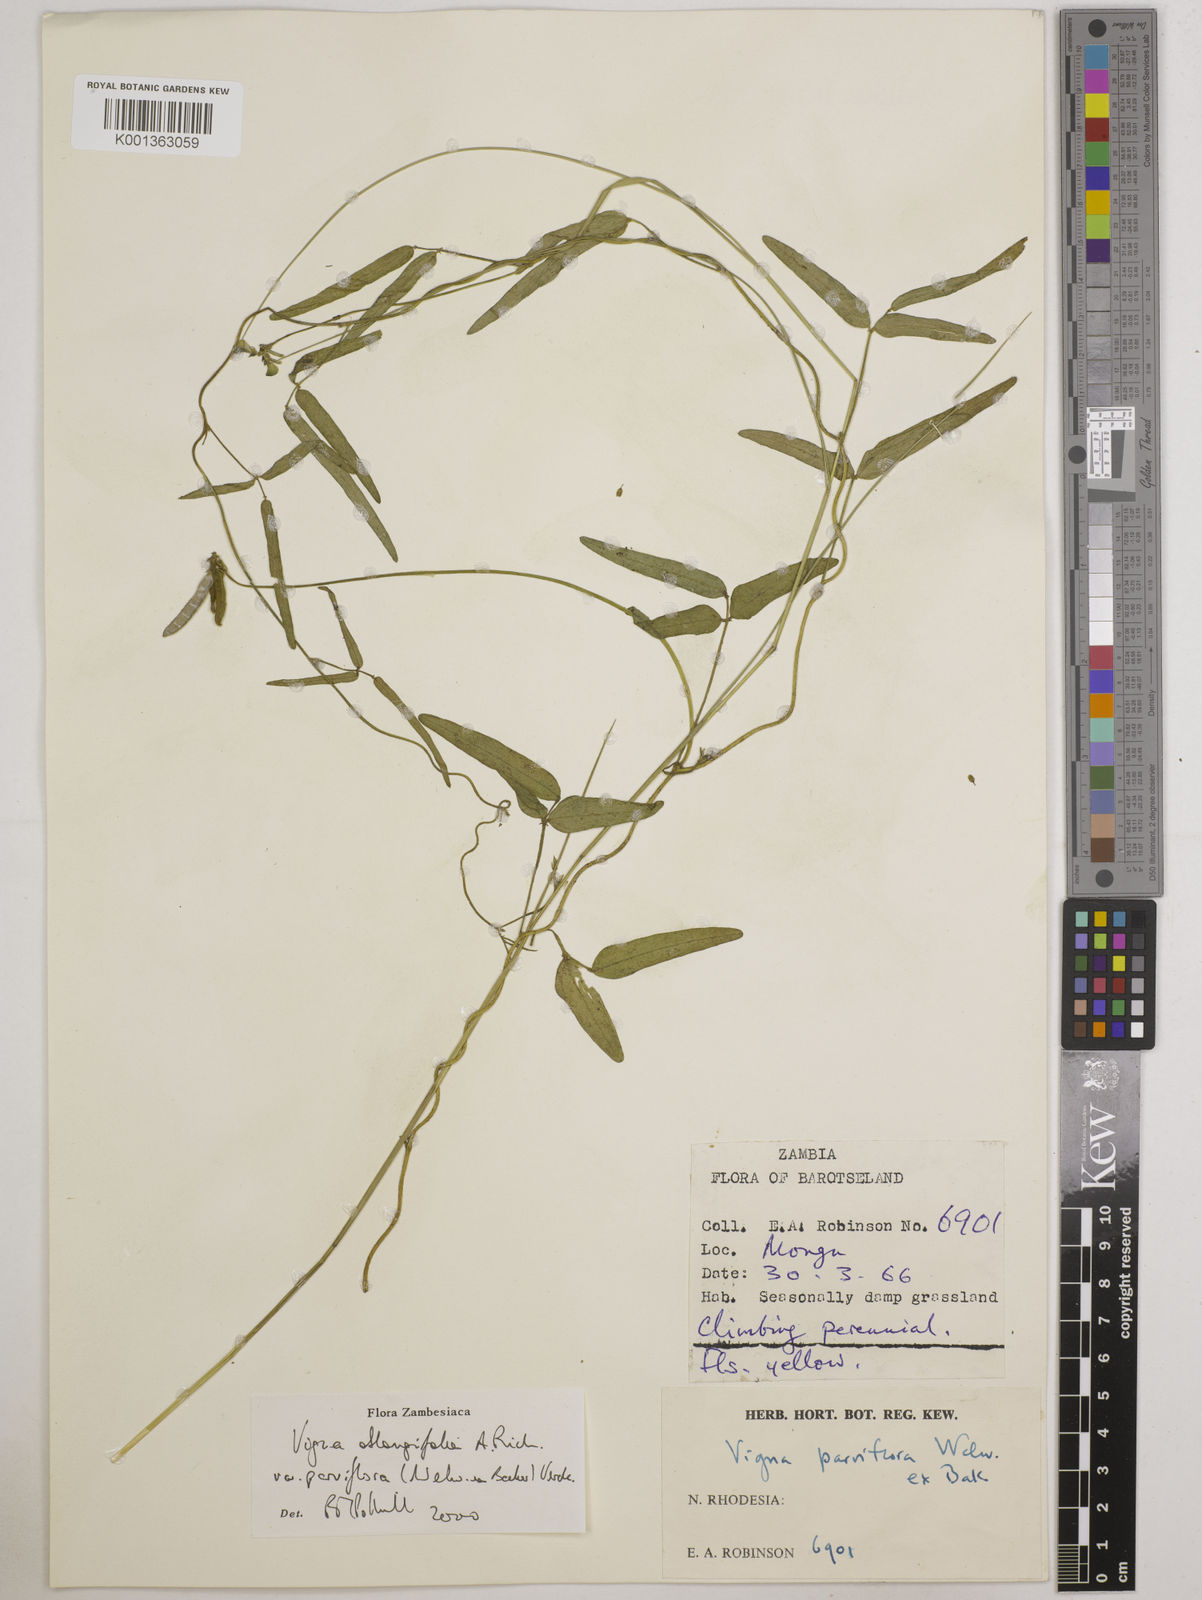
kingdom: Plantae
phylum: Tracheophyta
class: Magnoliopsida
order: Fabales
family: Fabaceae
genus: Vigna
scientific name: Vigna
